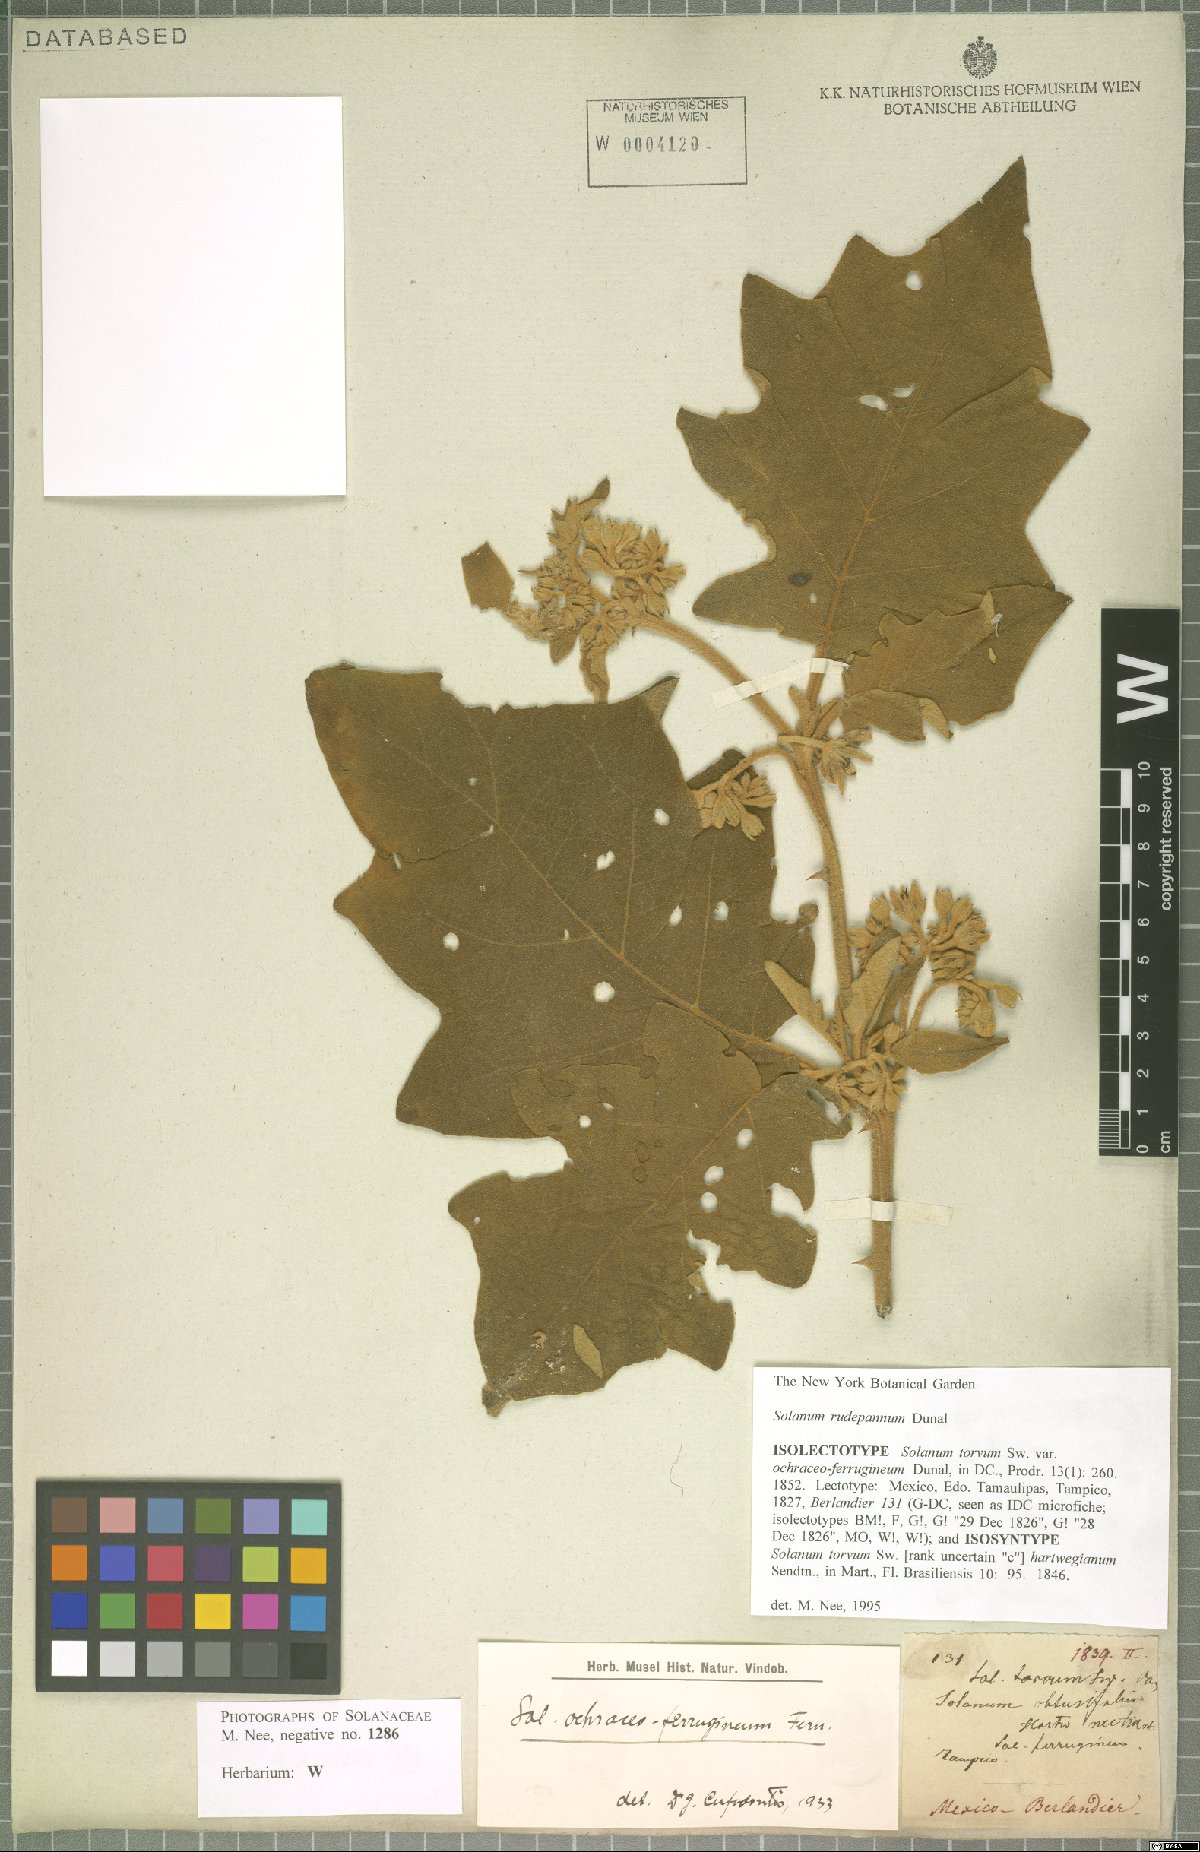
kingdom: Plantae
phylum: Tracheophyta
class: Magnoliopsida
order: Solanales
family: Solanaceae
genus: Solanum
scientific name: Solanum rude-pannum
